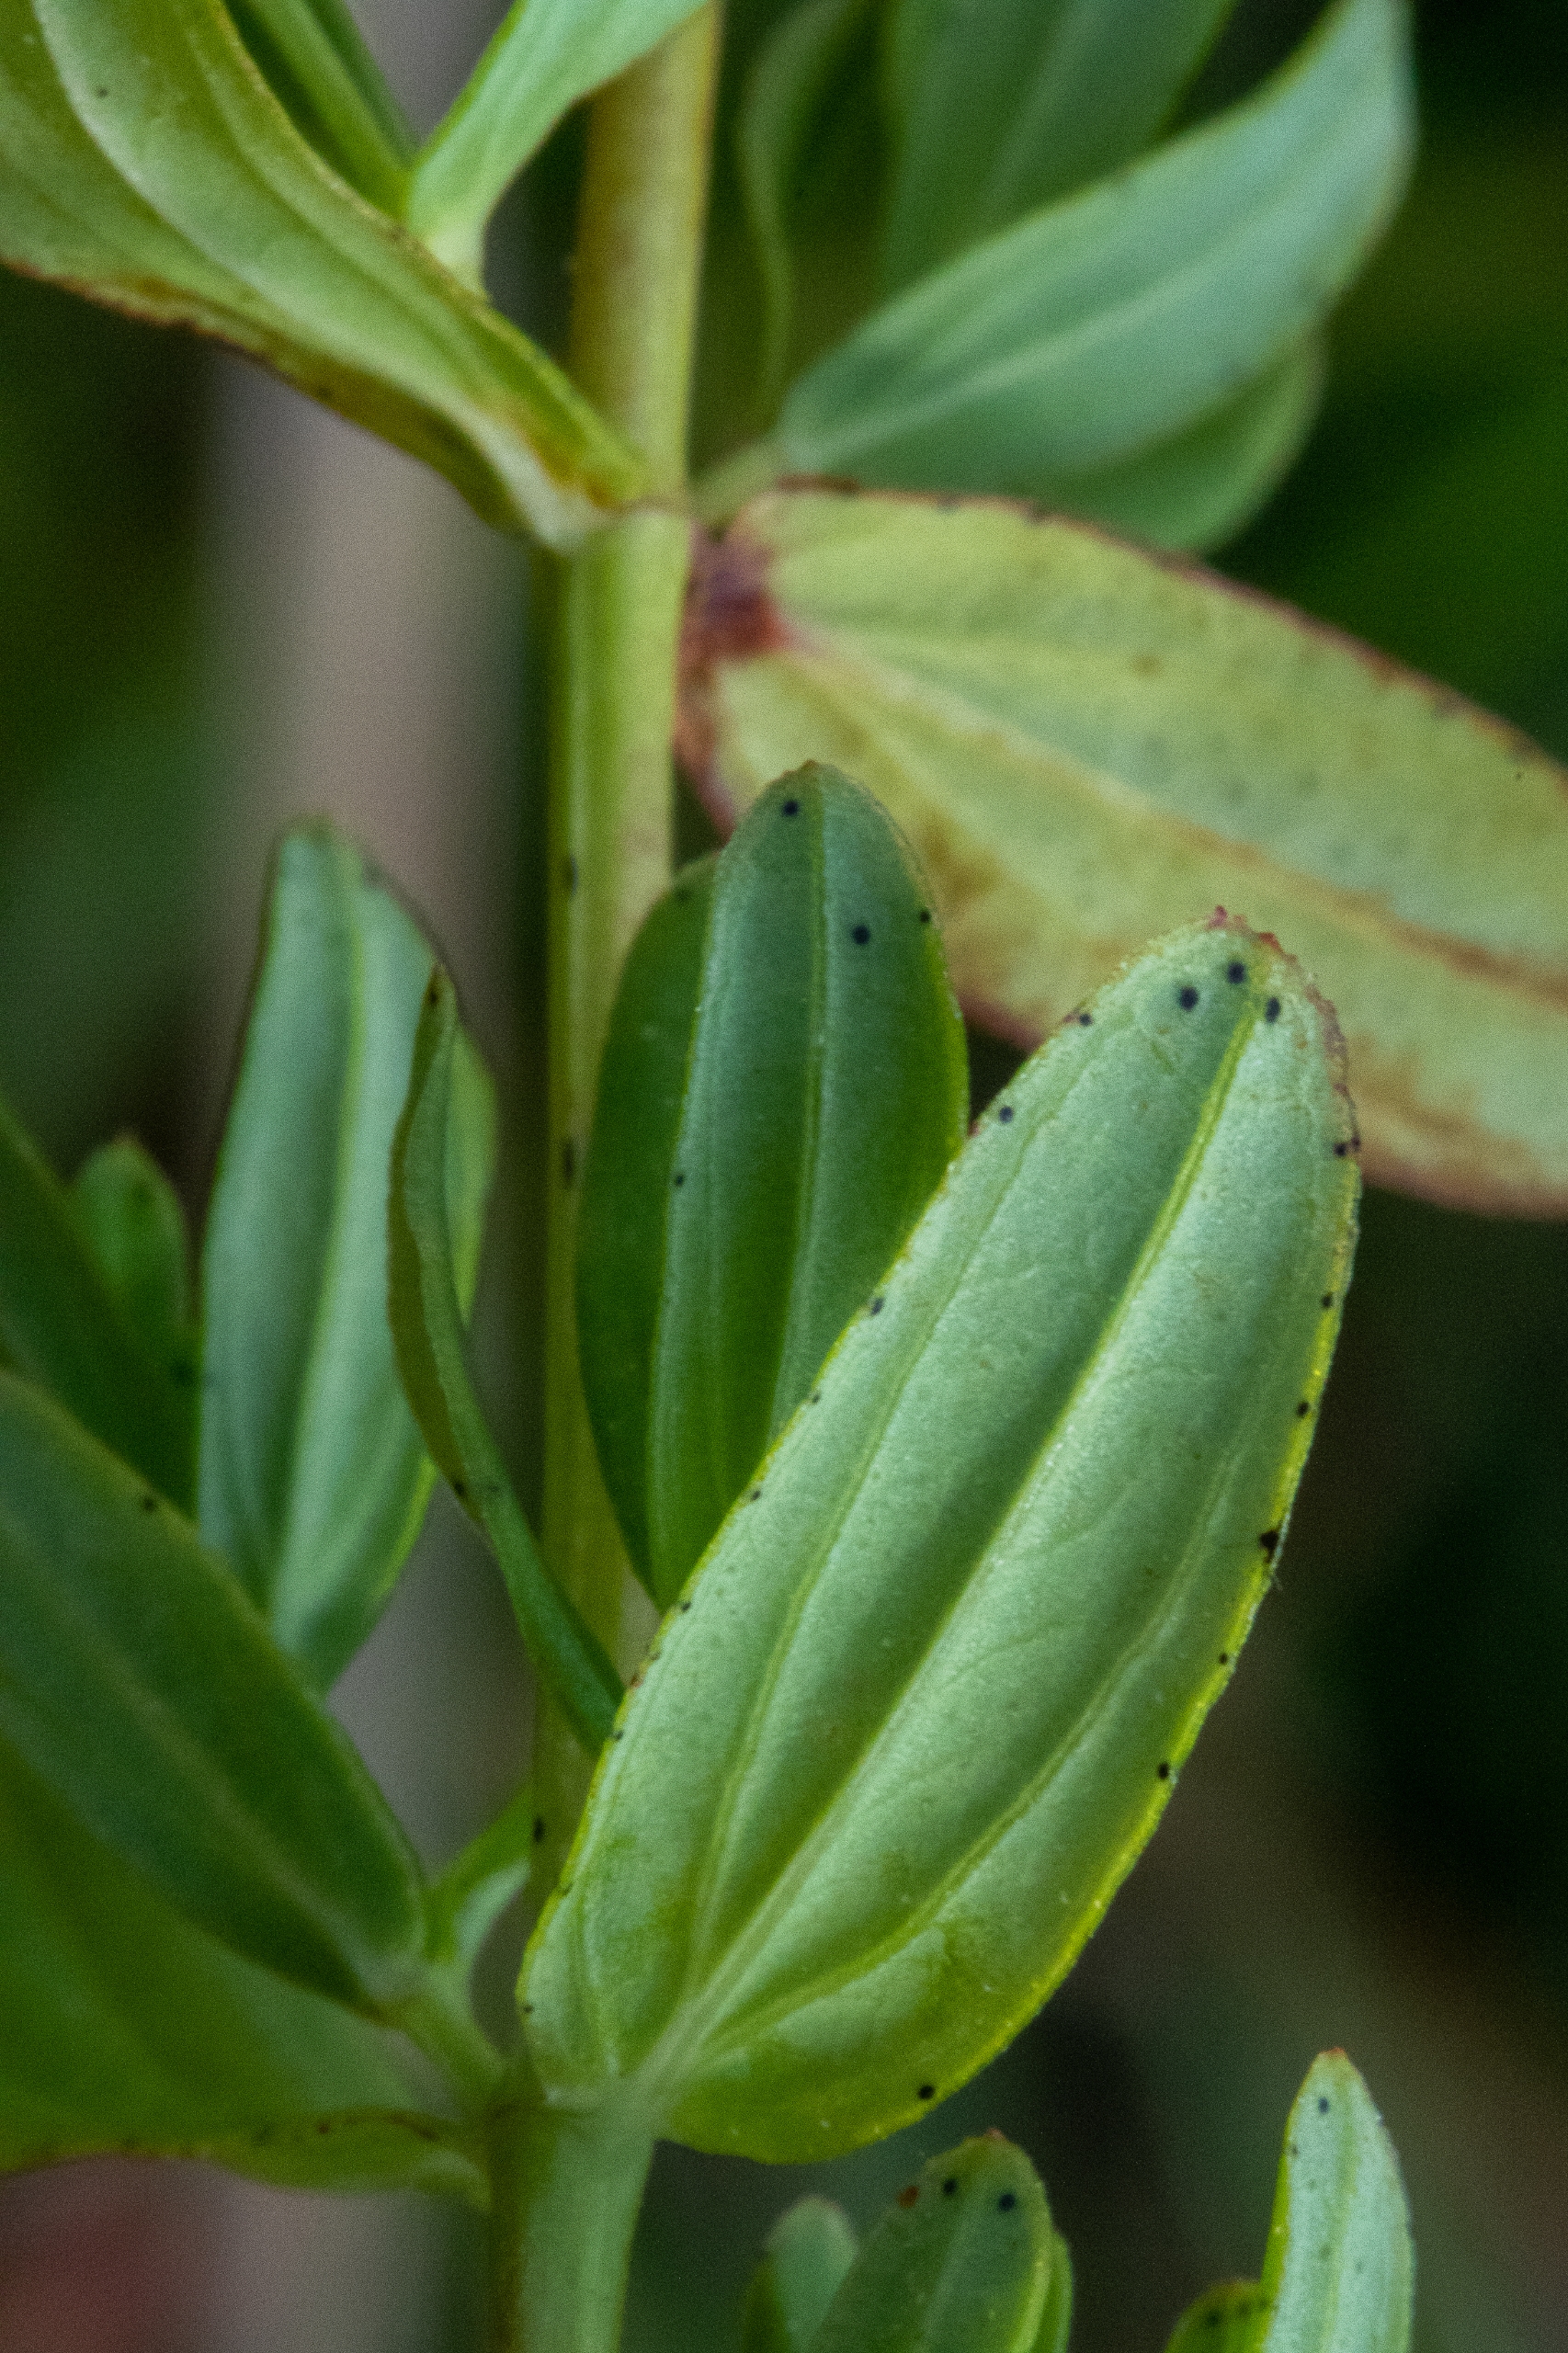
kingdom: Plantae
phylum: Tracheophyta
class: Magnoliopsida
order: Malpighiales
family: Hypericaceae
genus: Hypericum
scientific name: Hypericum perforatum
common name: Prikbladet perikon
